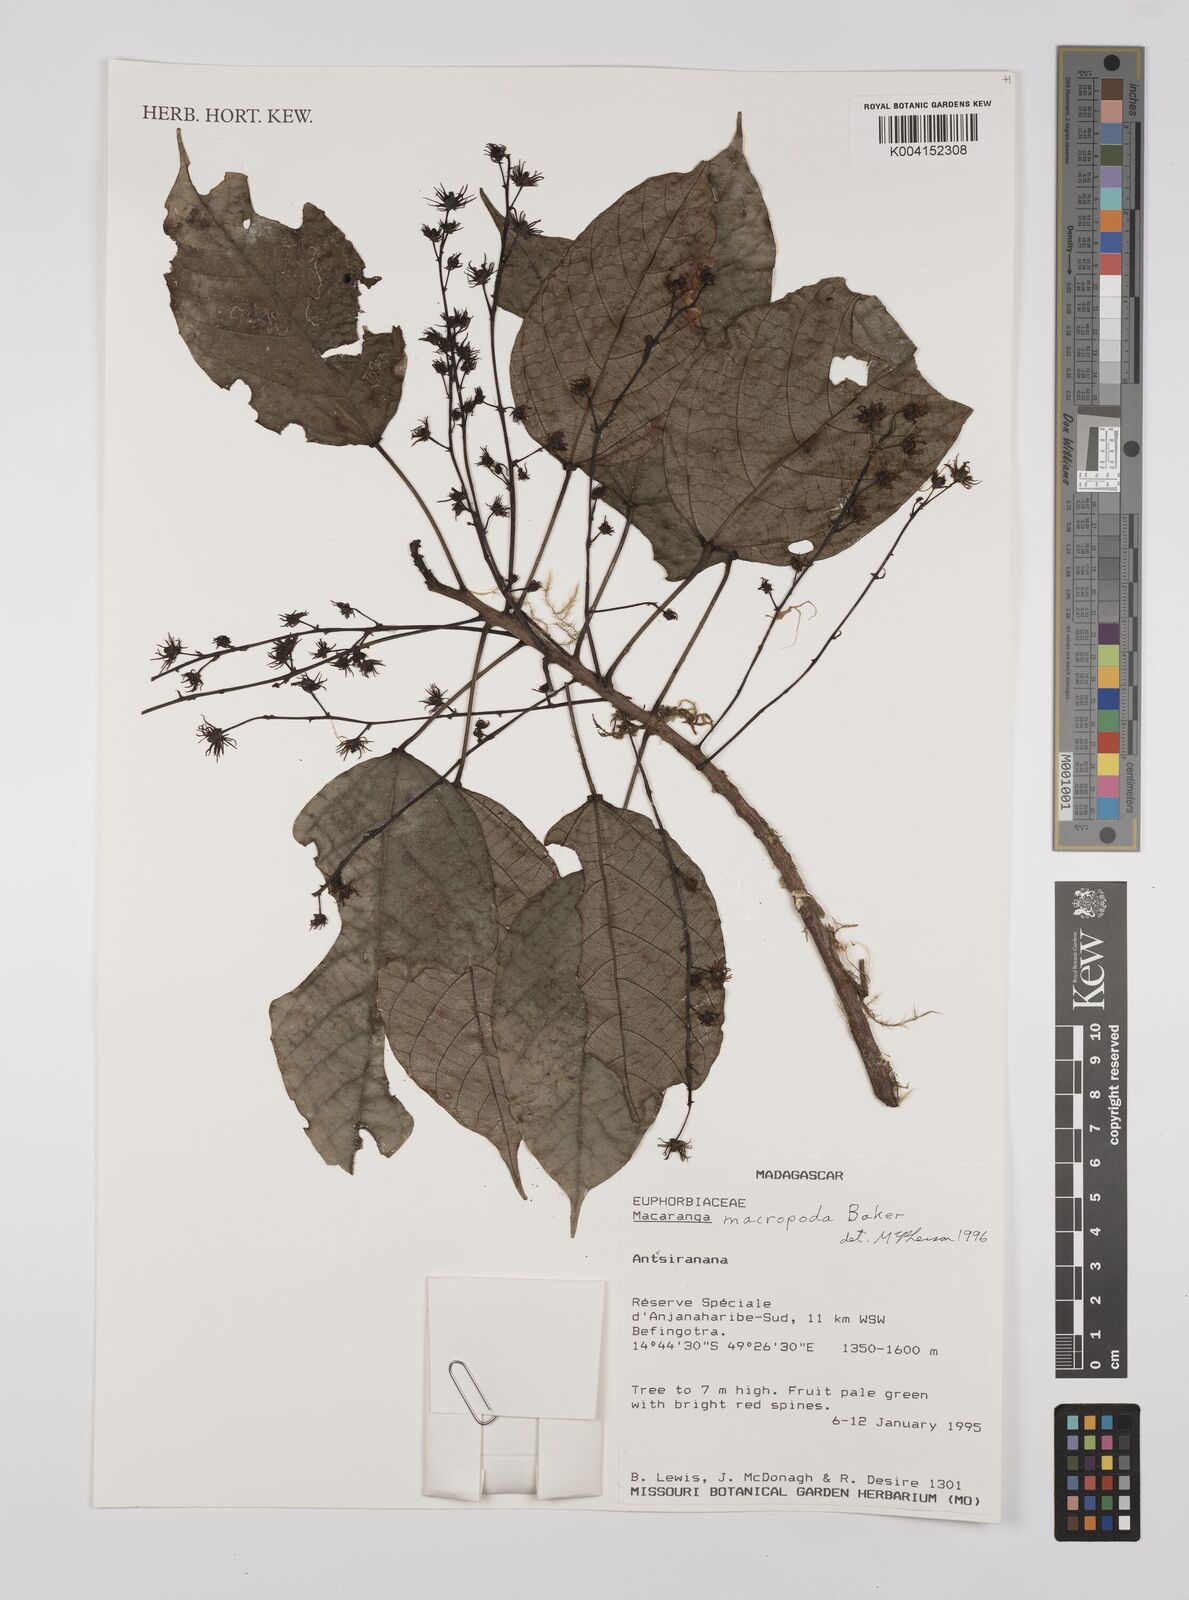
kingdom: Plantae
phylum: Tracheophyta
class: Magnoliopsida
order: Malpighiales
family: Euphorbiaceae
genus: Macaranga
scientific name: Macaranga macropoda
